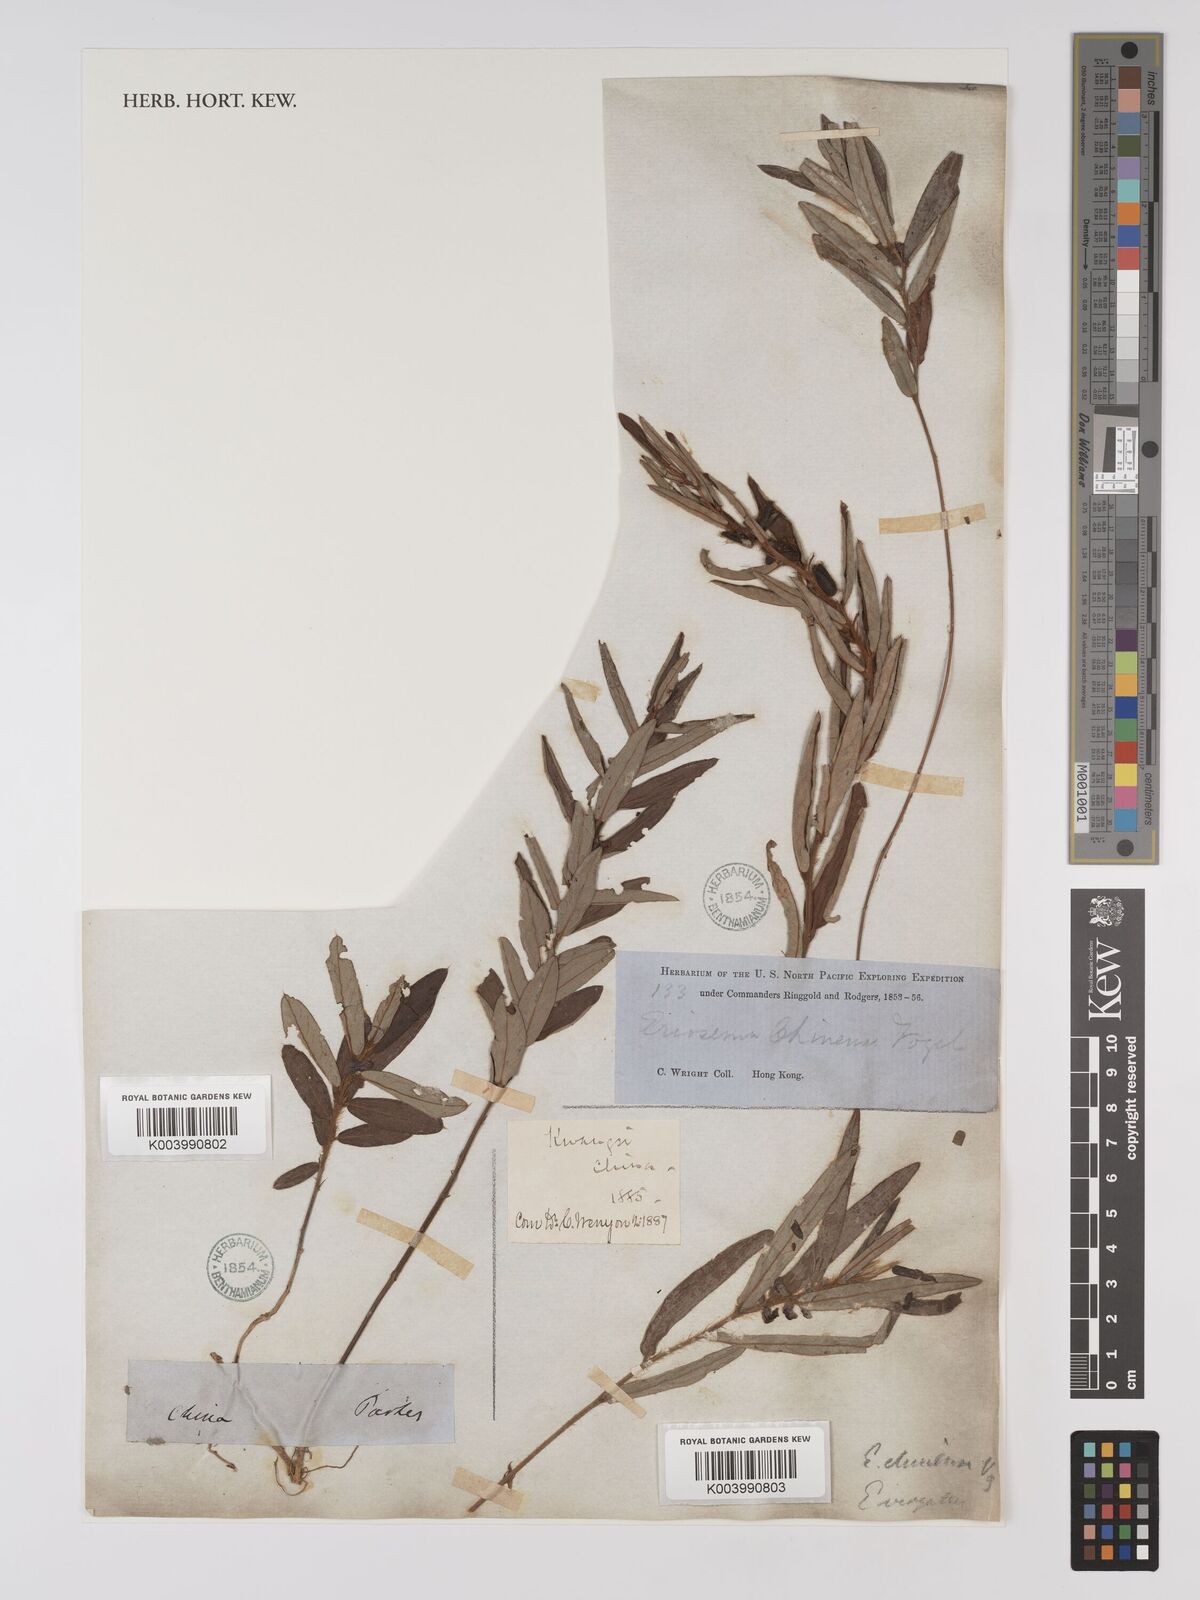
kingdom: Plantae
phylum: Tracheophyta
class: Magnoliopsida
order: Fabales
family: Fabaceae
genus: Eriosema
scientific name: Eriosema chinense
